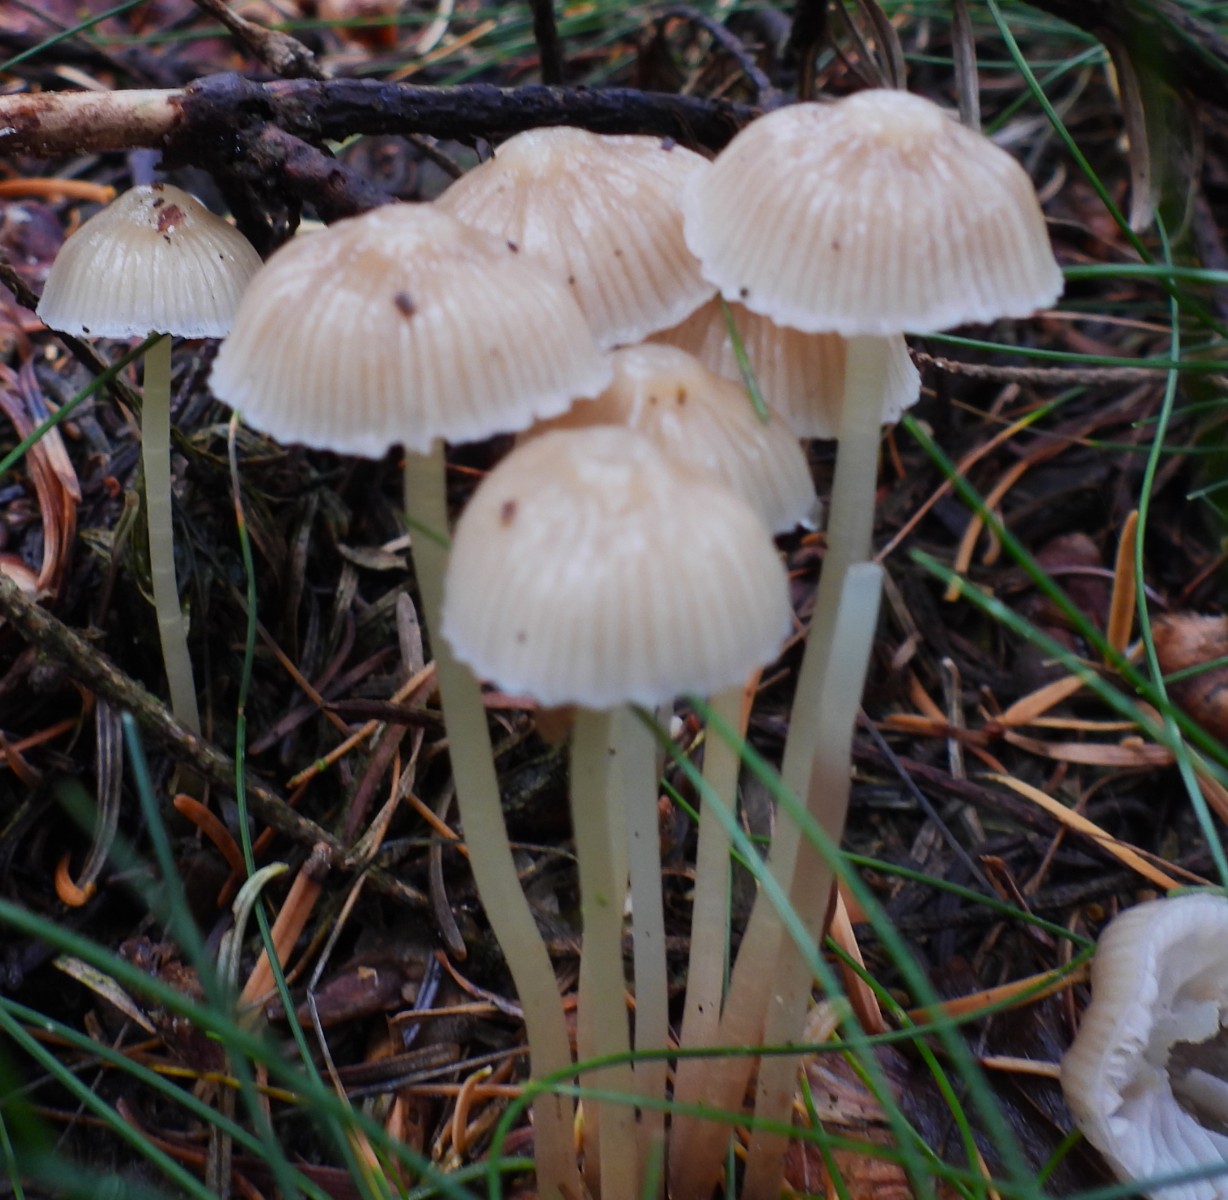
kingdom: Fungi
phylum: Basidiomycota
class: Agaricomycetes
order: Agaricales
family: Mycenaceae
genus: Mycena
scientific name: Mycena epipterygia
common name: gulstokket huesvamp
